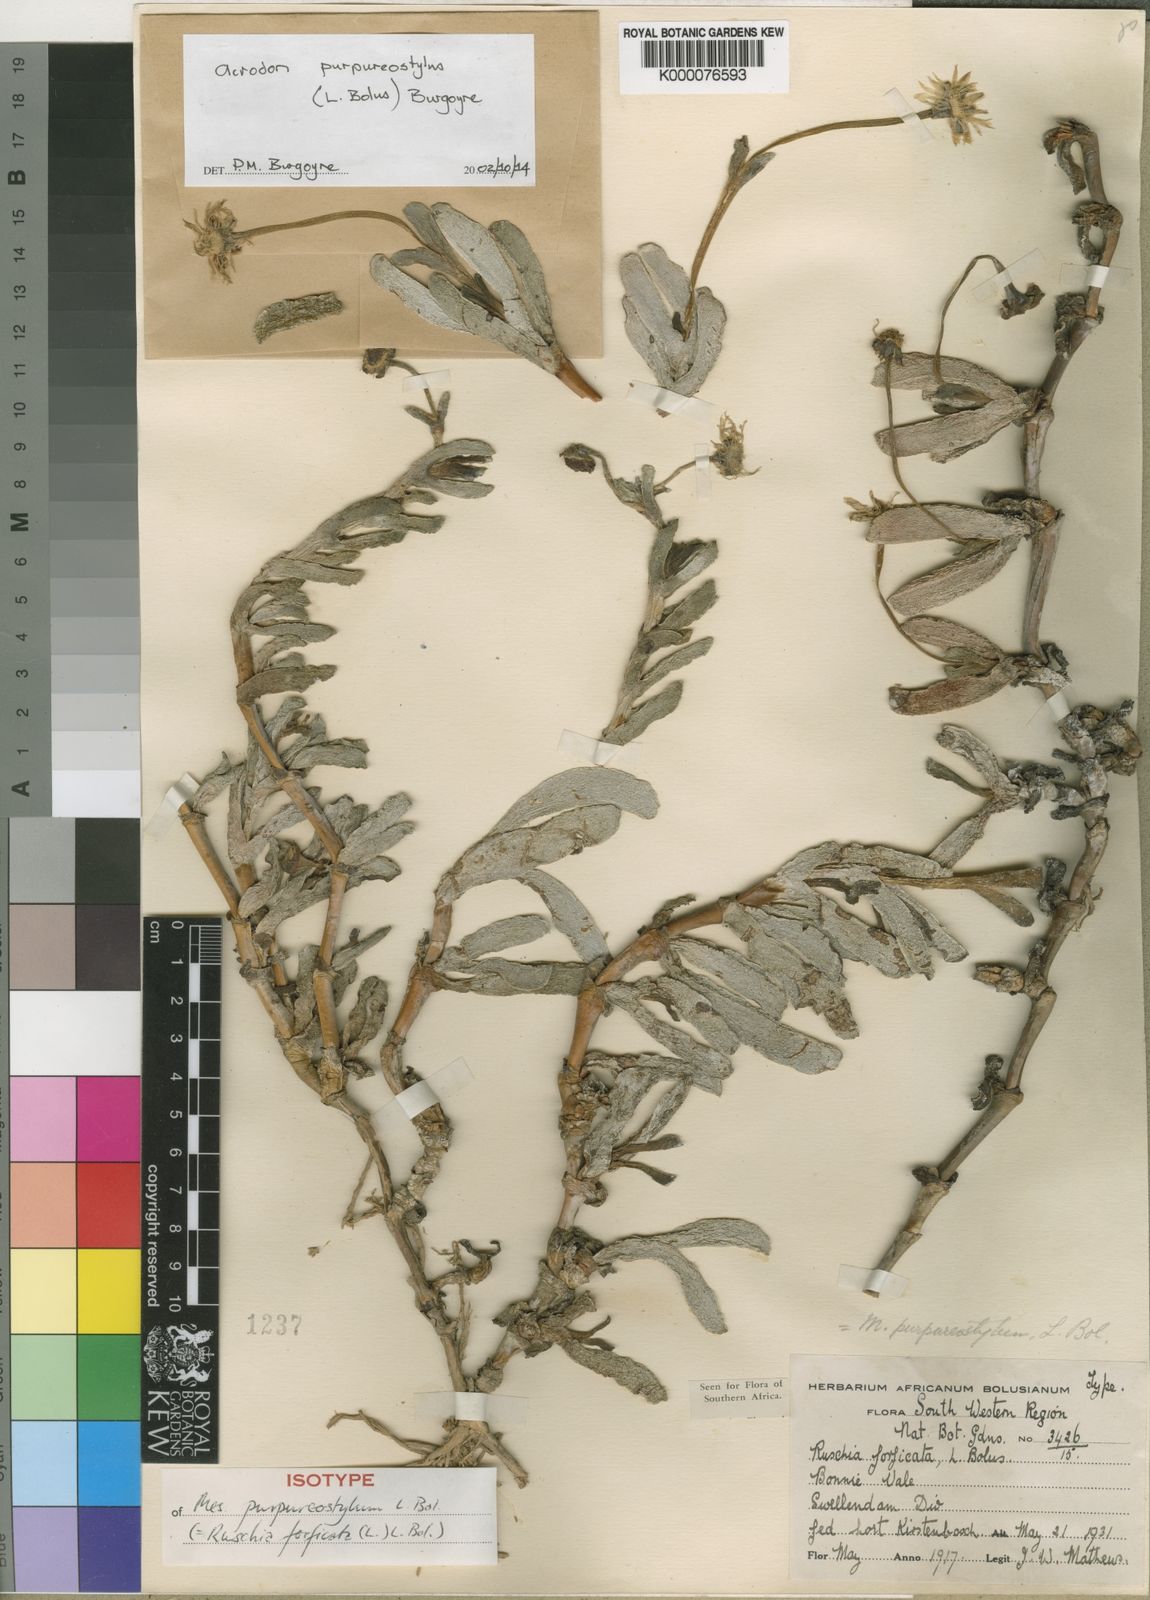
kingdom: Plantae
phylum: Tracheophyta
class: Magnoliopsida
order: Caryophyllales
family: Aizoaceae
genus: Brianhuntleya
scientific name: Brianhuntleya purpureostyla
